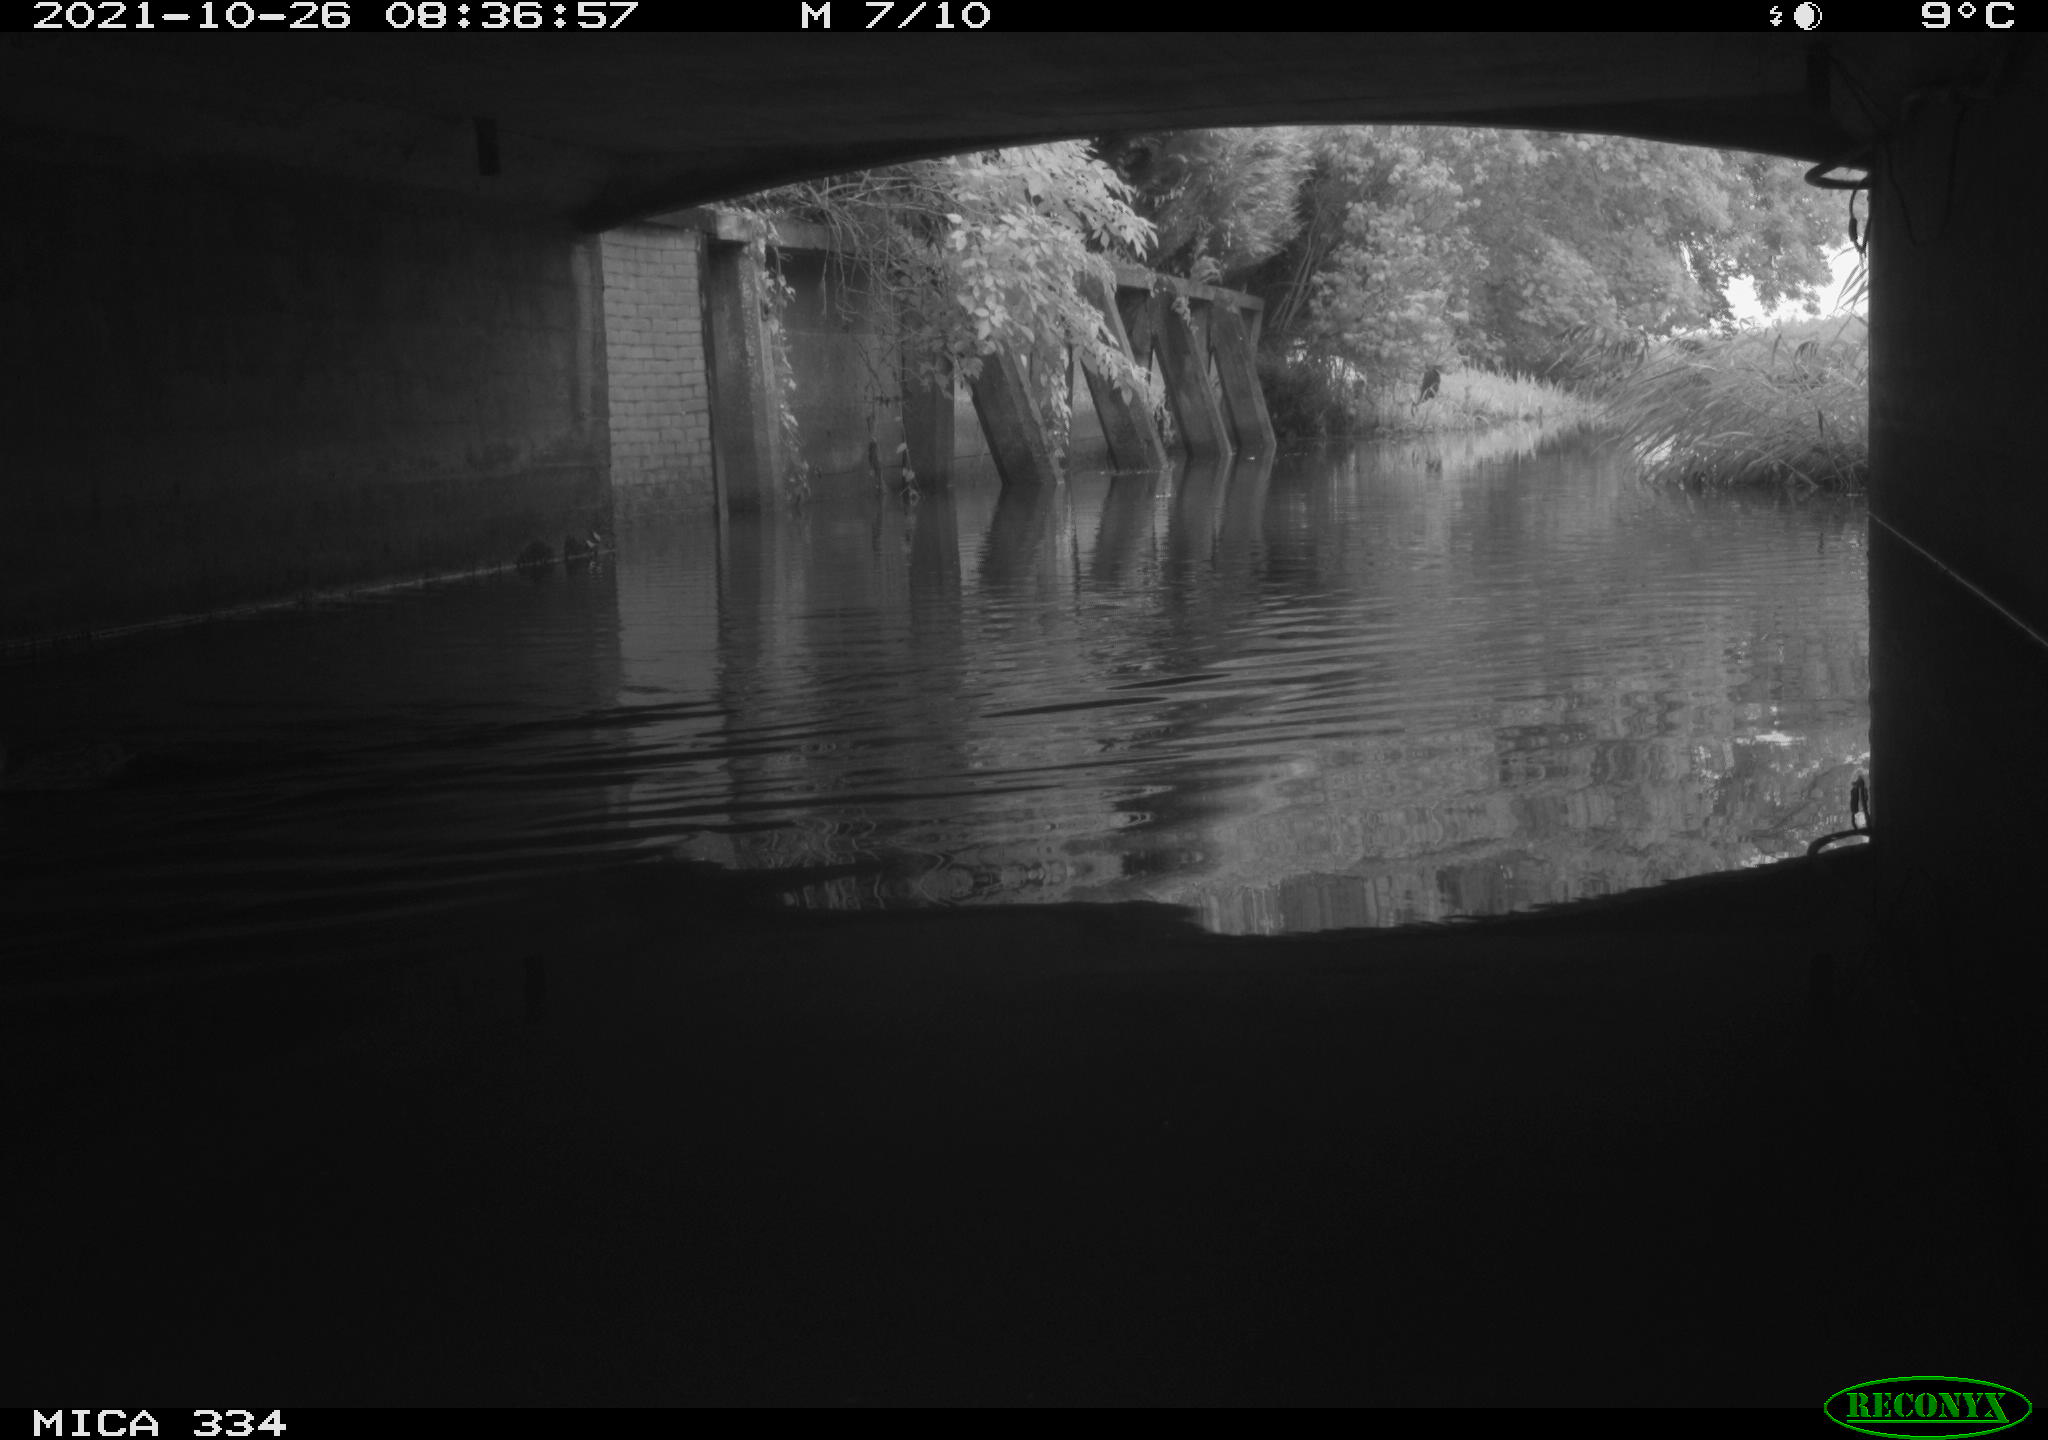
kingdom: Animalia
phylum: Chordata
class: Aves
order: Anseriformes
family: Anatidae
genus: Anas
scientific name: Anas platyrhynchos
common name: Mallard
